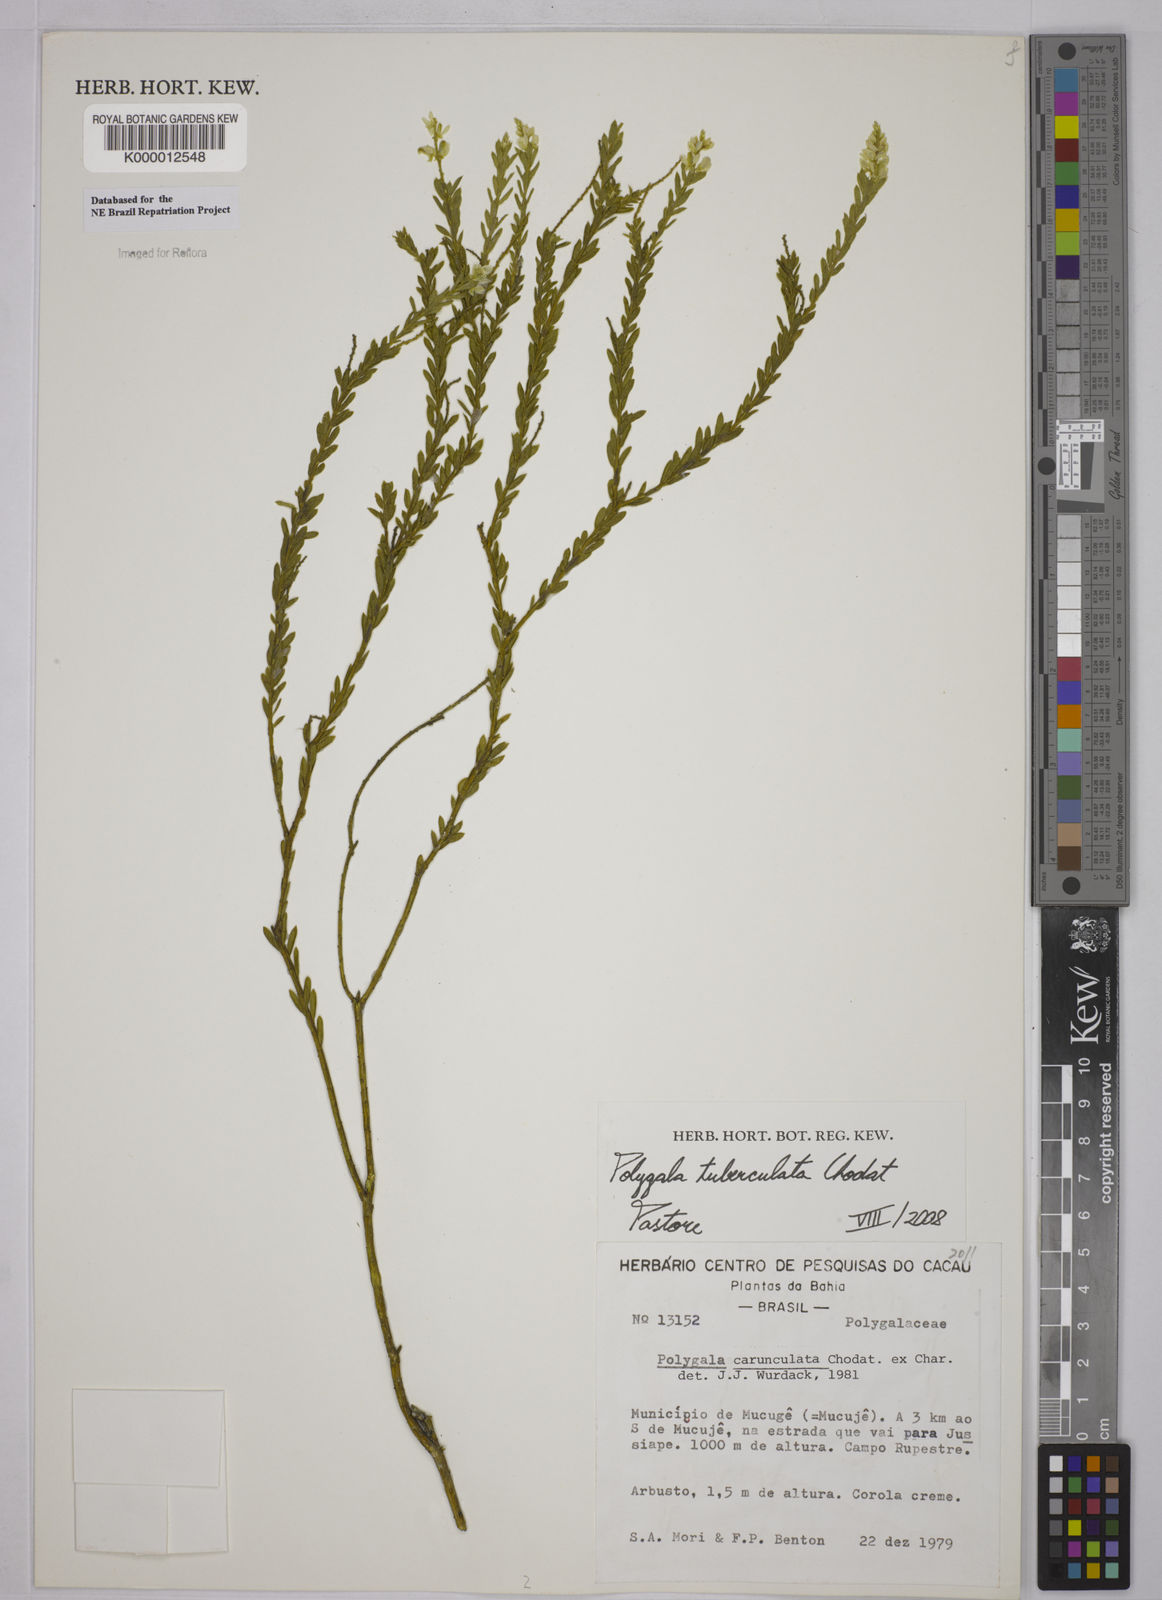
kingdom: Plantae
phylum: Tracheophyta
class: Magnoliopsida
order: Fabales
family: Polygalaceae
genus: Polygala
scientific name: Polygala tuberculata
